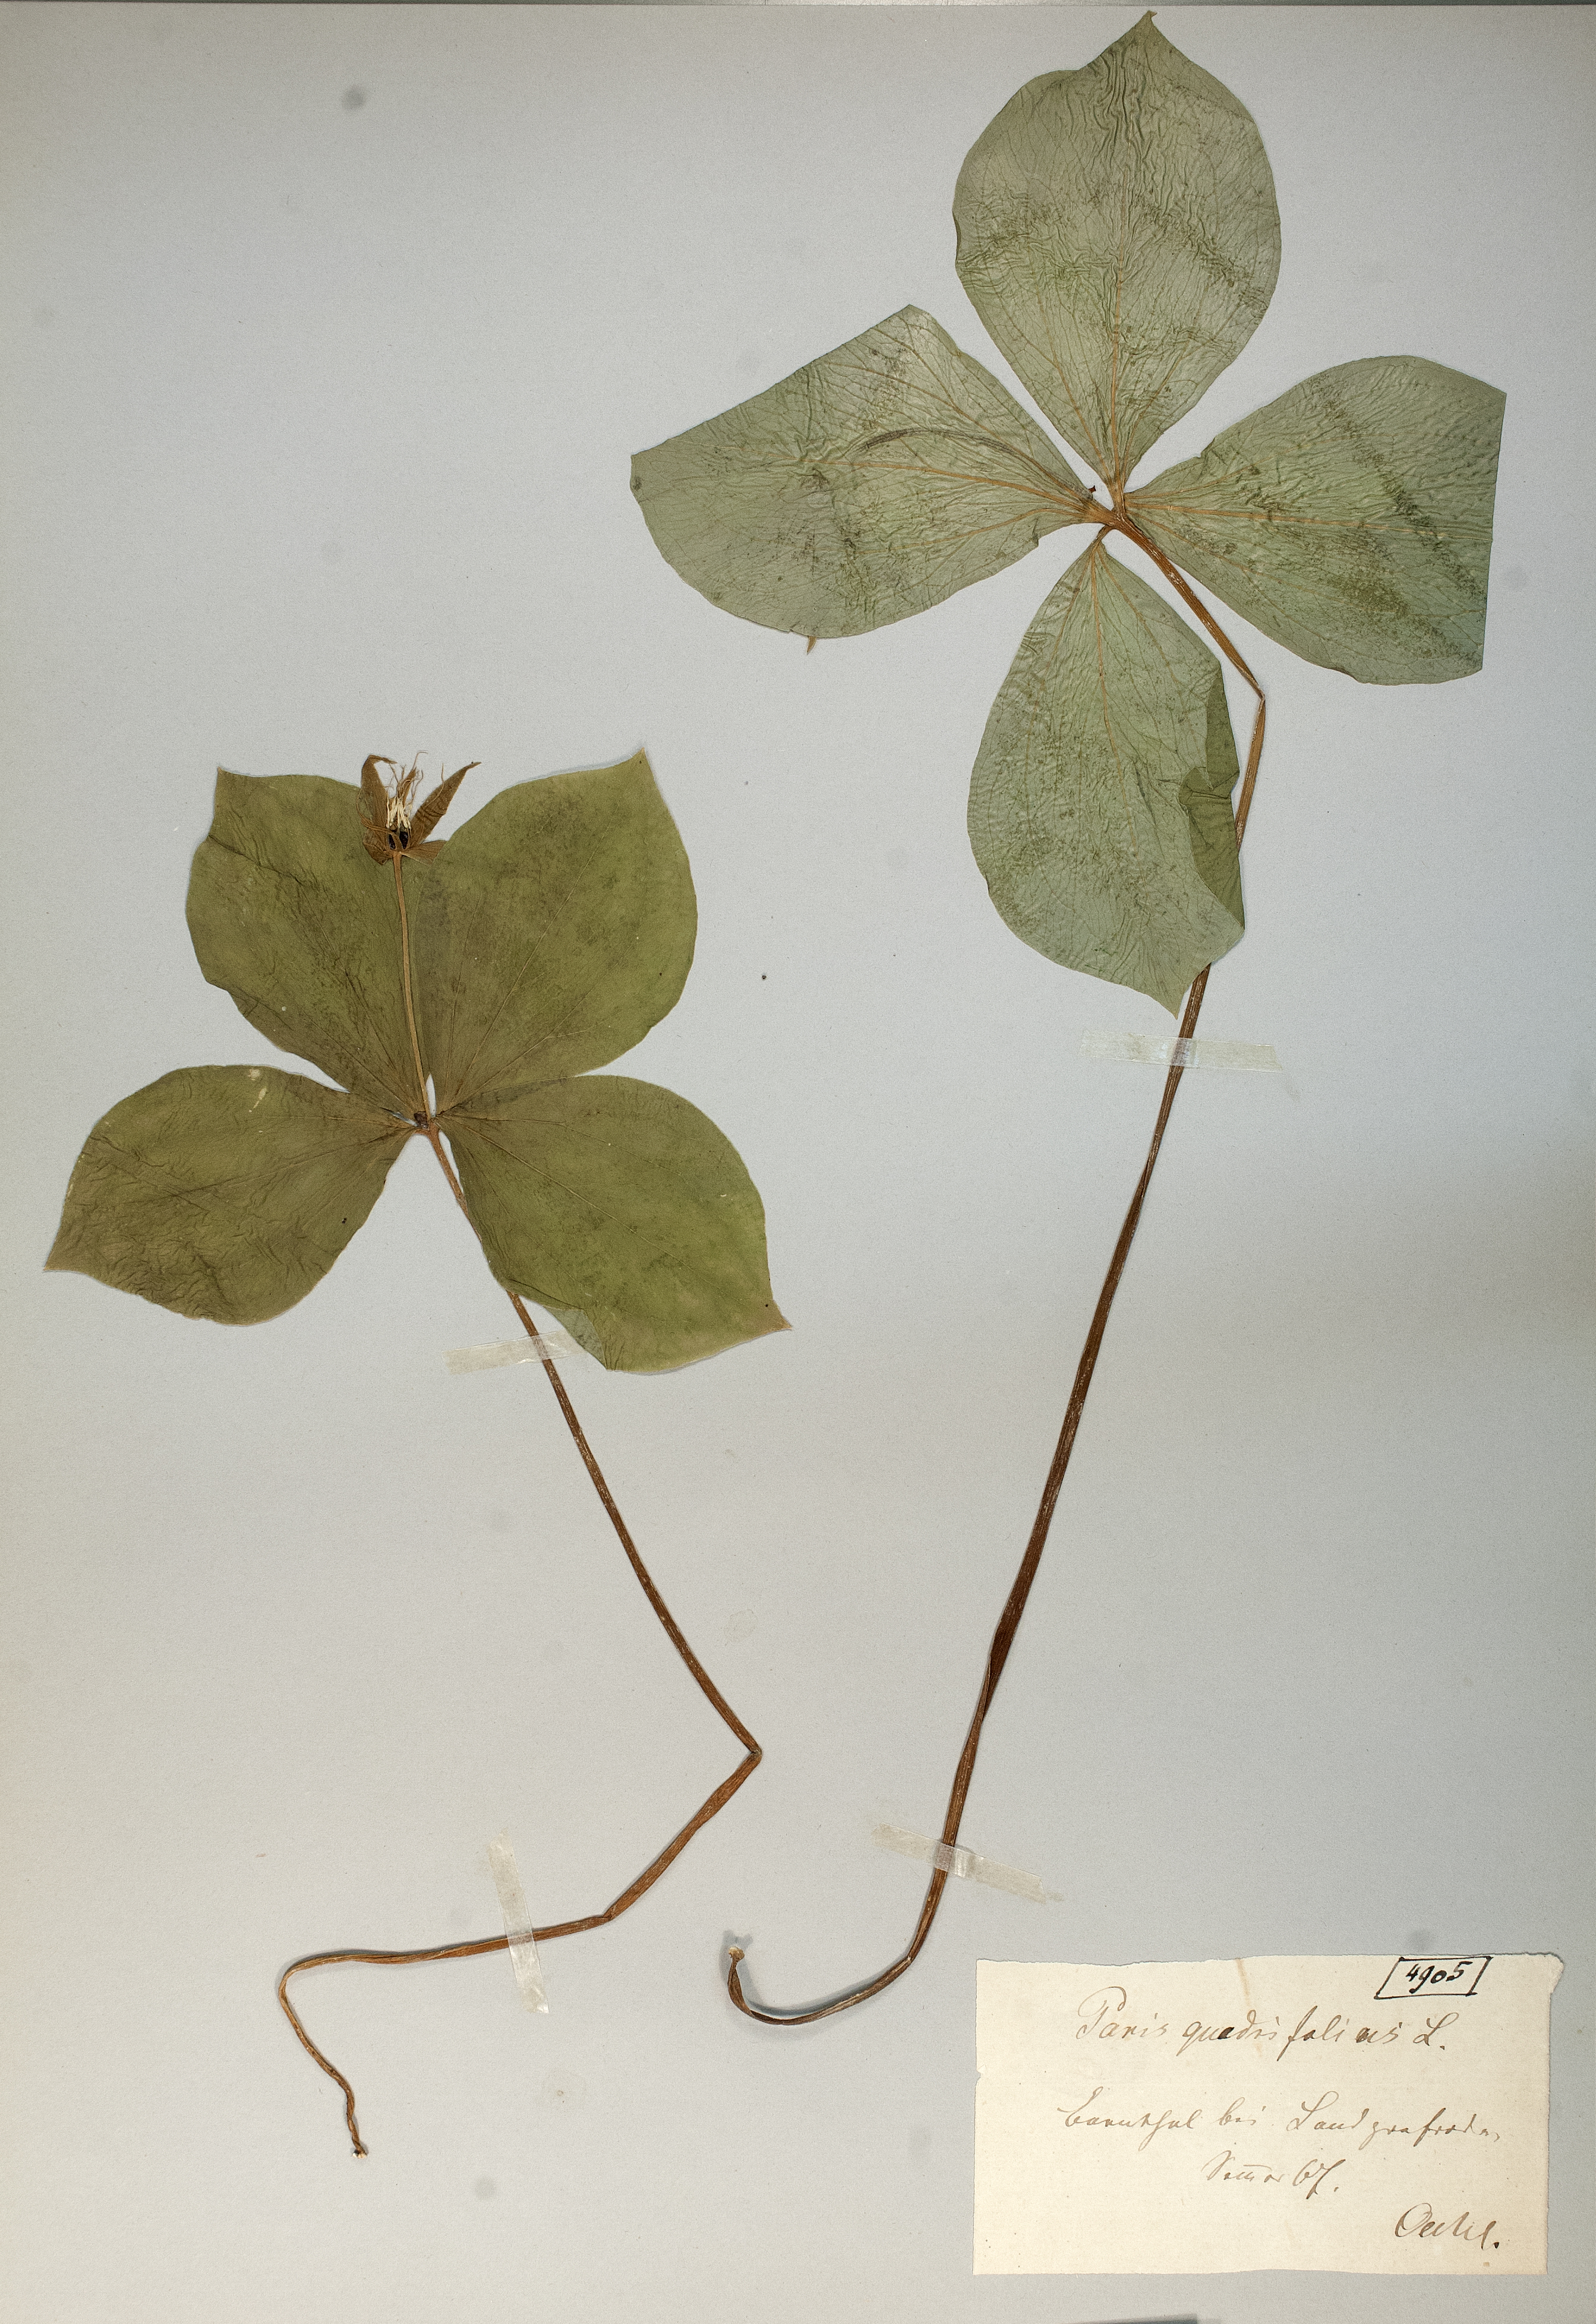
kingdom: Plantae
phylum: Tracheophyta
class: Liliopsida
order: Liliales
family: Melanthiaceae
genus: Paris
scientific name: Paris quadrifolia
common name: Herb-paris
